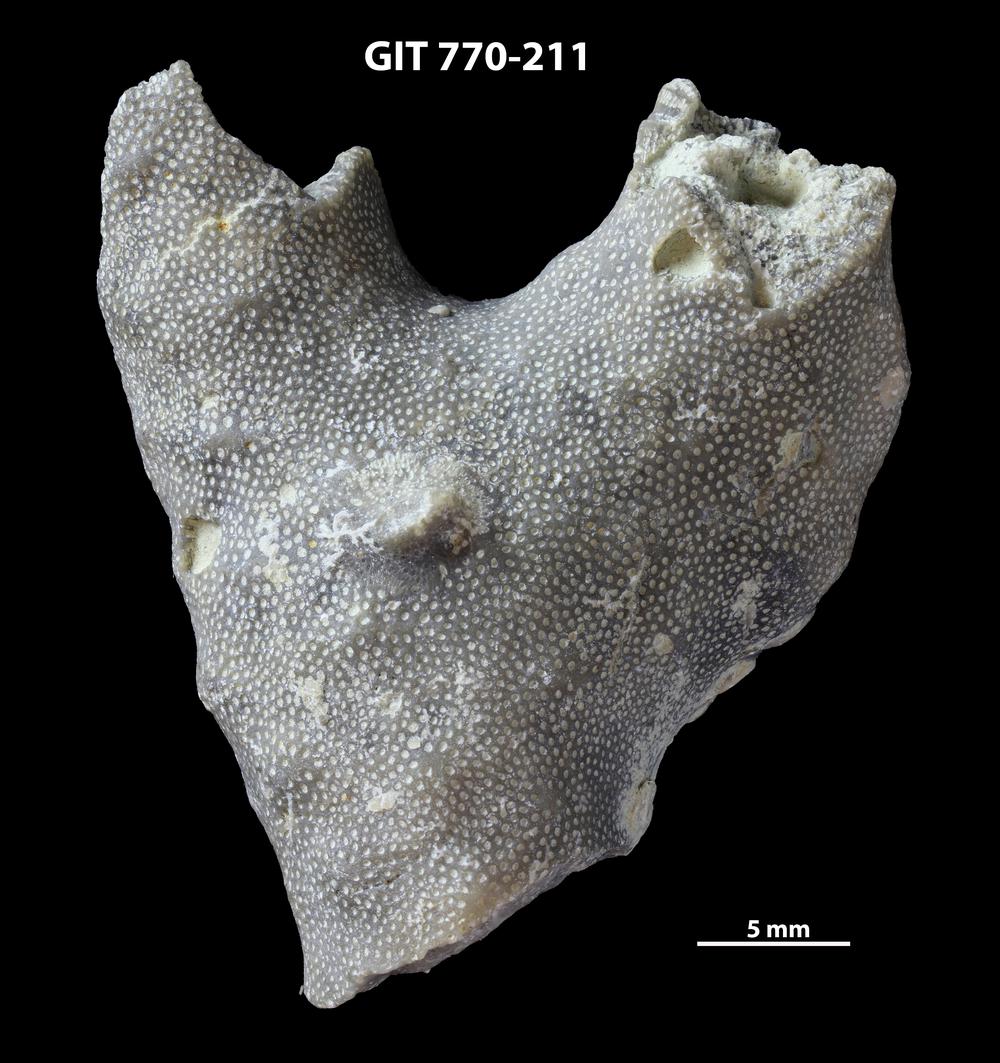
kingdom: Animalia
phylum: Bryozoa
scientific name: Bryozoa
